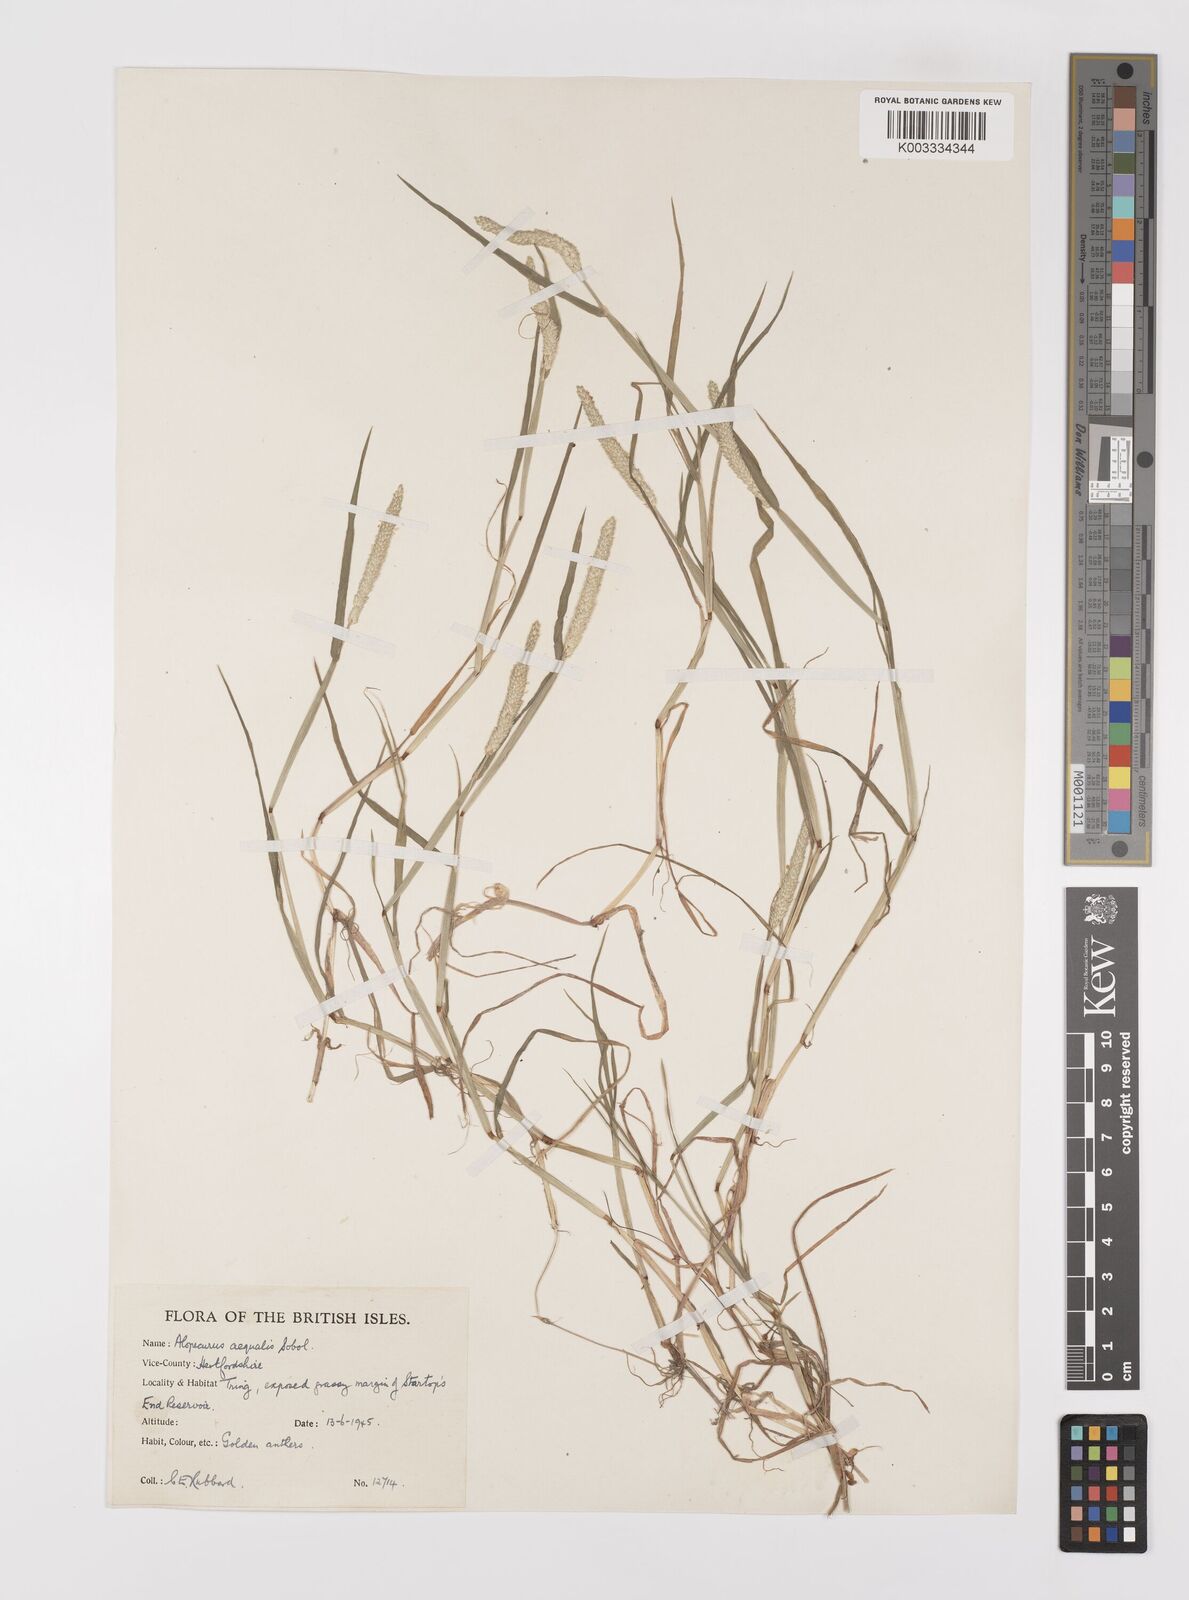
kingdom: Plantae
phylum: Tracheophyta
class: Liliopsida
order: Poales
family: Poaceae
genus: Alopecurus
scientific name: Alopecurus aequalis
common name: Orange foxtail
